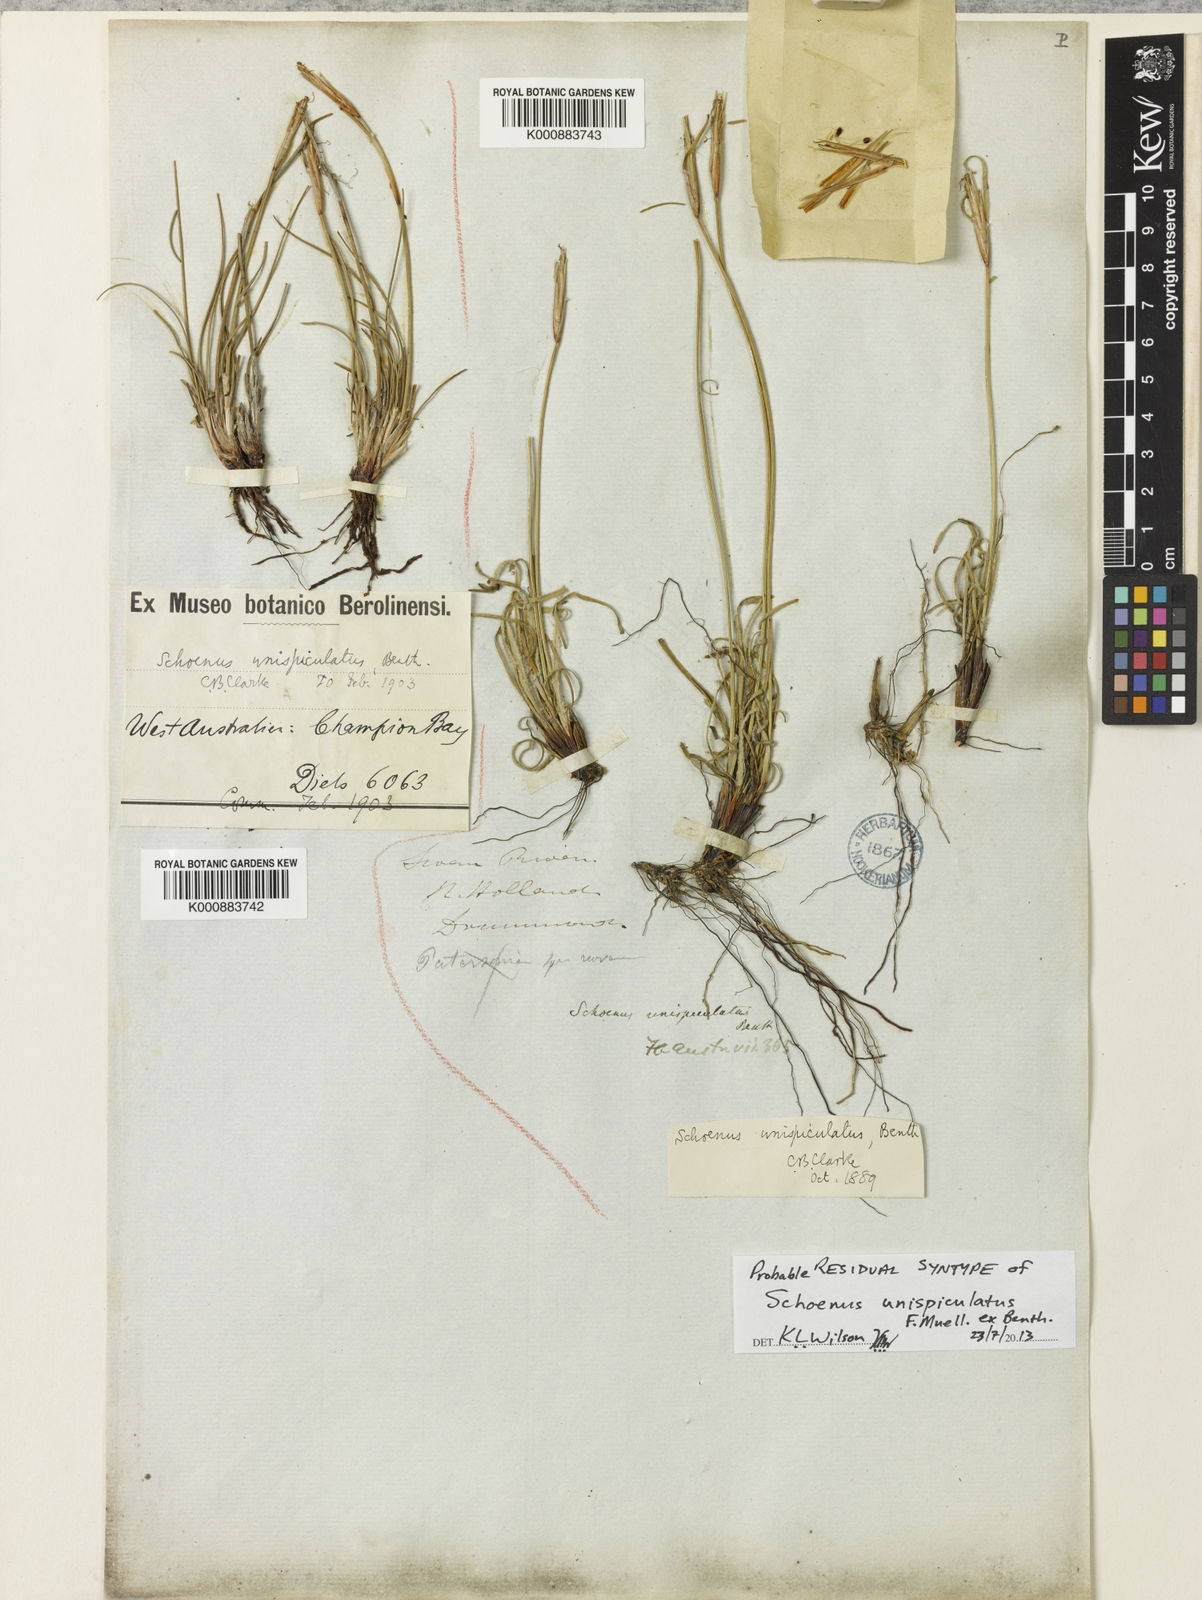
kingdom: Plantae
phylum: Tracheophyta
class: Liliopsida
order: Poales
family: Cyperaceae
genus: Schoenus
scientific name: Schoenus unispiculatus
